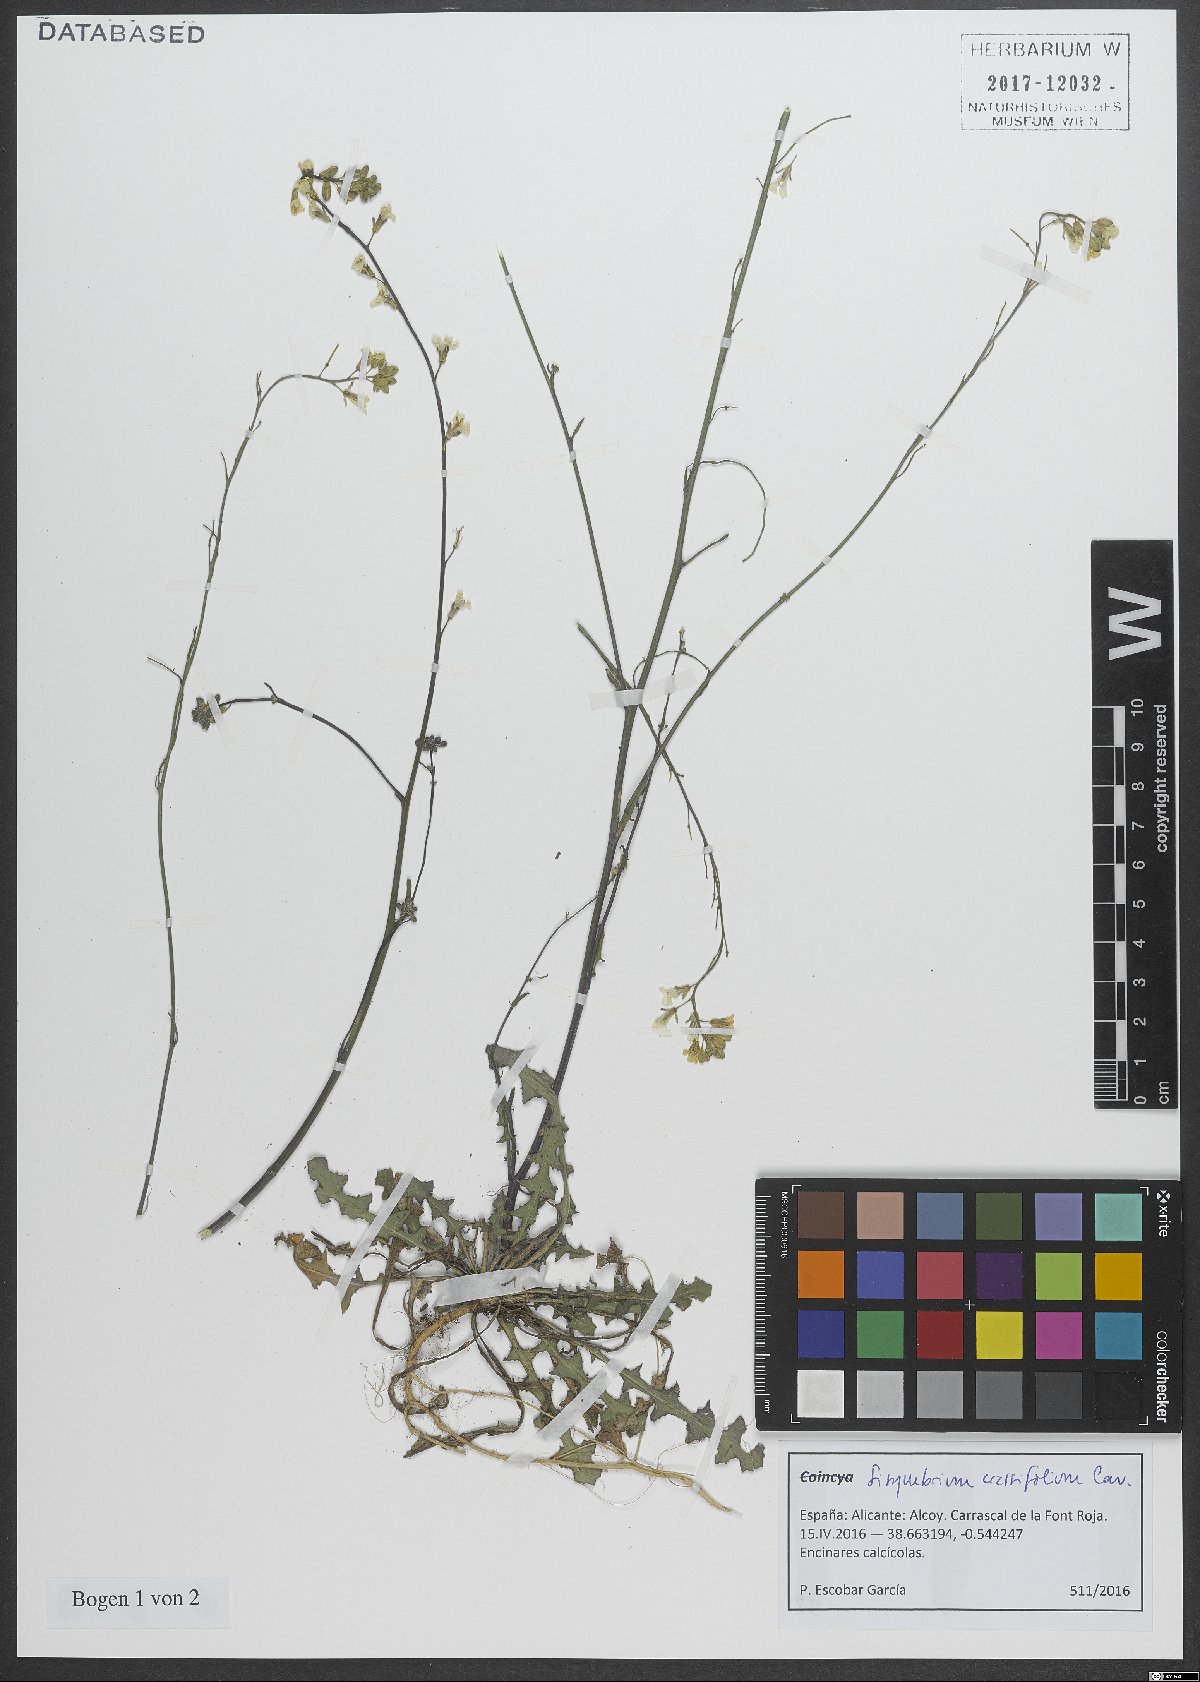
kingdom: Plantae
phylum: Tracheophyta
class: Magnoliopsida
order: Brassicales
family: Brassicaceae
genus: Sisymbrium
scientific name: Sisymbrium crassifolium
